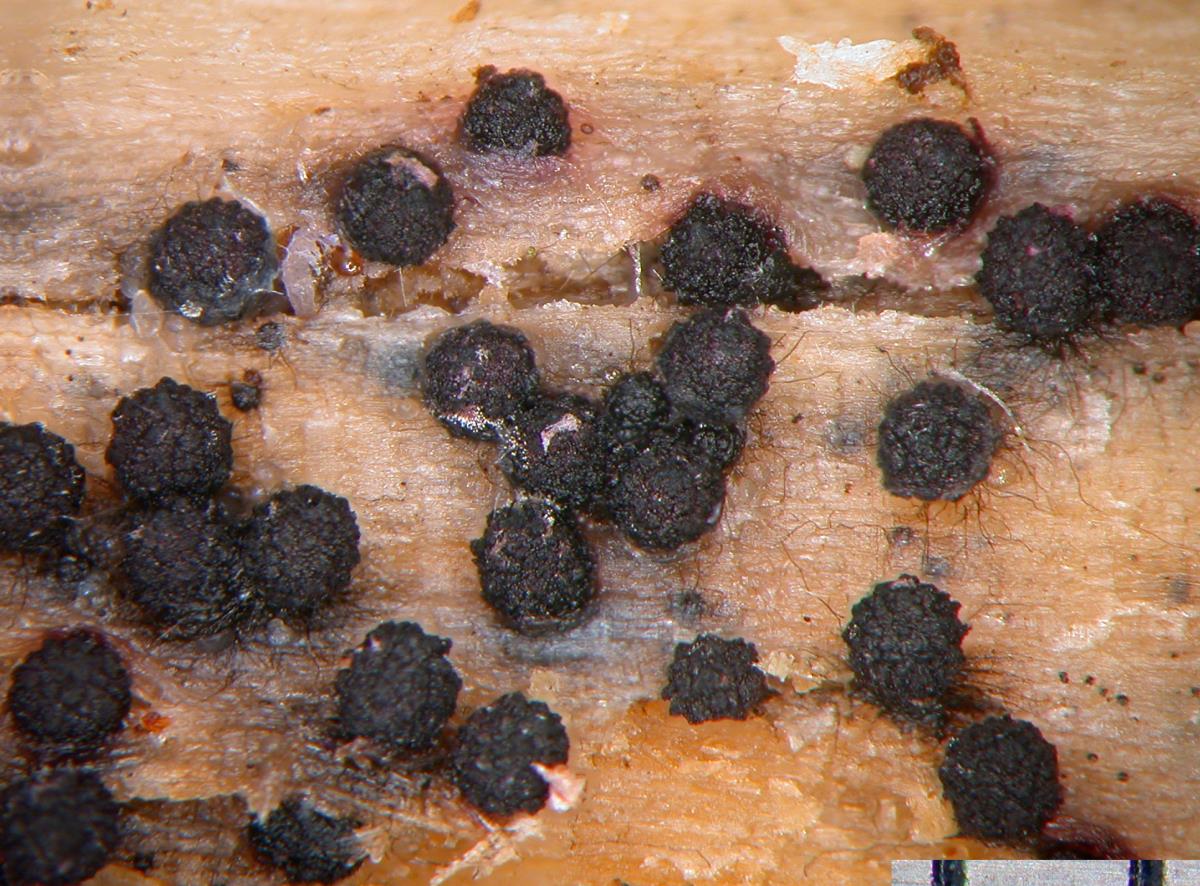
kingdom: Fungi
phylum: Ascomycota
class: Sordariomycetes
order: Sordariales
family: Lasiosphaeriaceae
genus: Lasiosphaeria
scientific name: Lasiosphaeria
